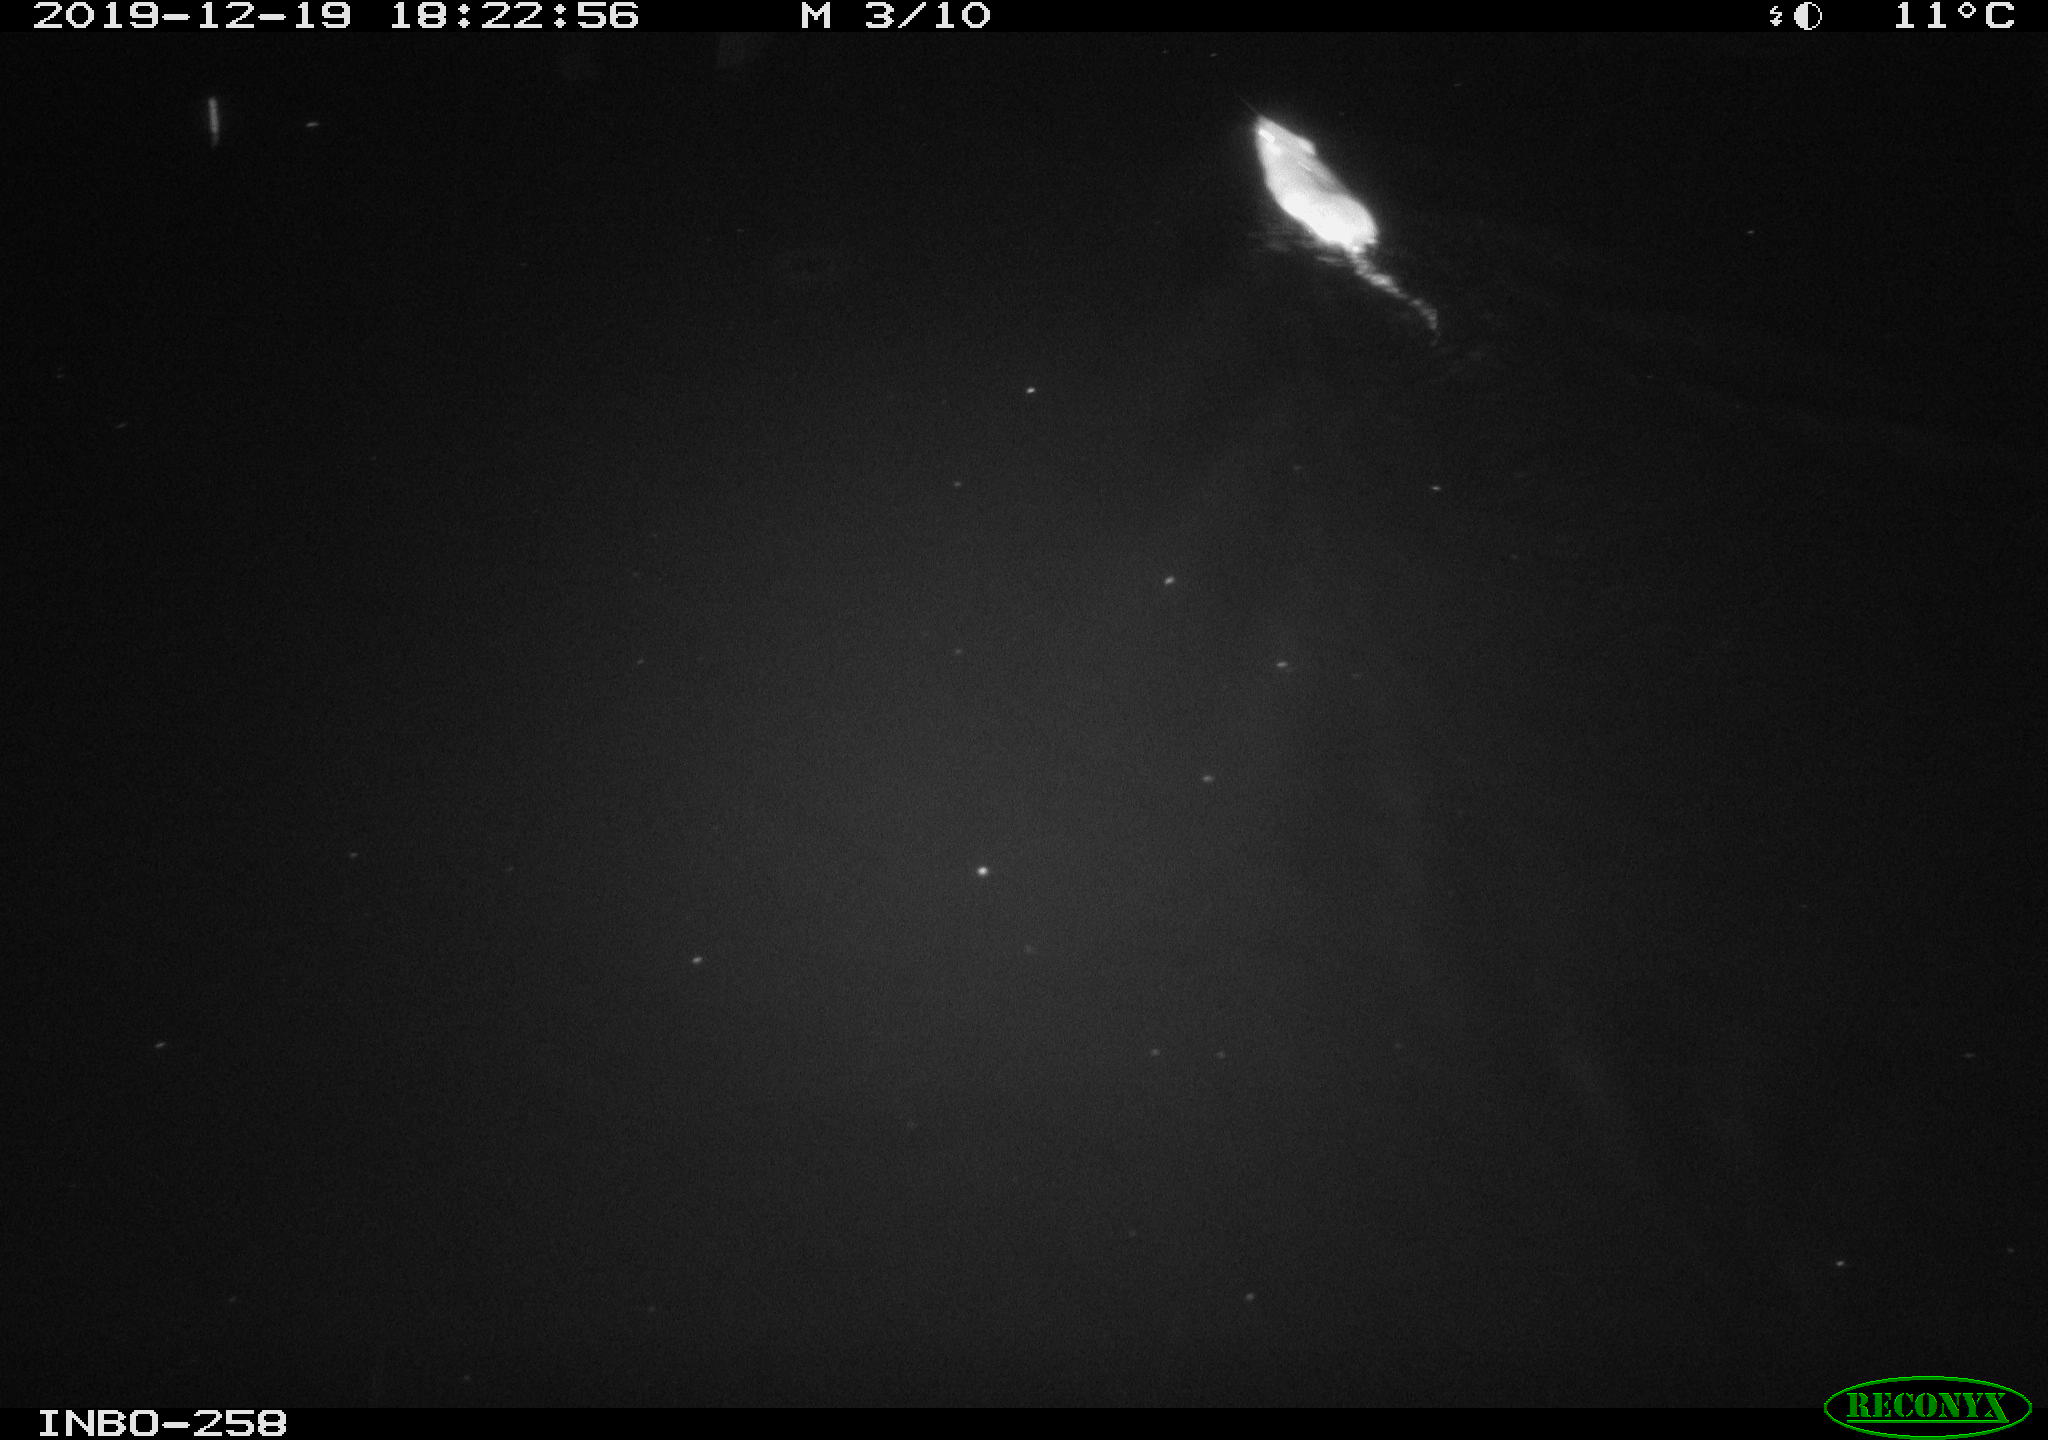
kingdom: Animalia
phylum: Chordata
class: Mammalia
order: Rodentia
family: Muridae
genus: Rattus
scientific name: Rattus norvegicus
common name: Brown rat
